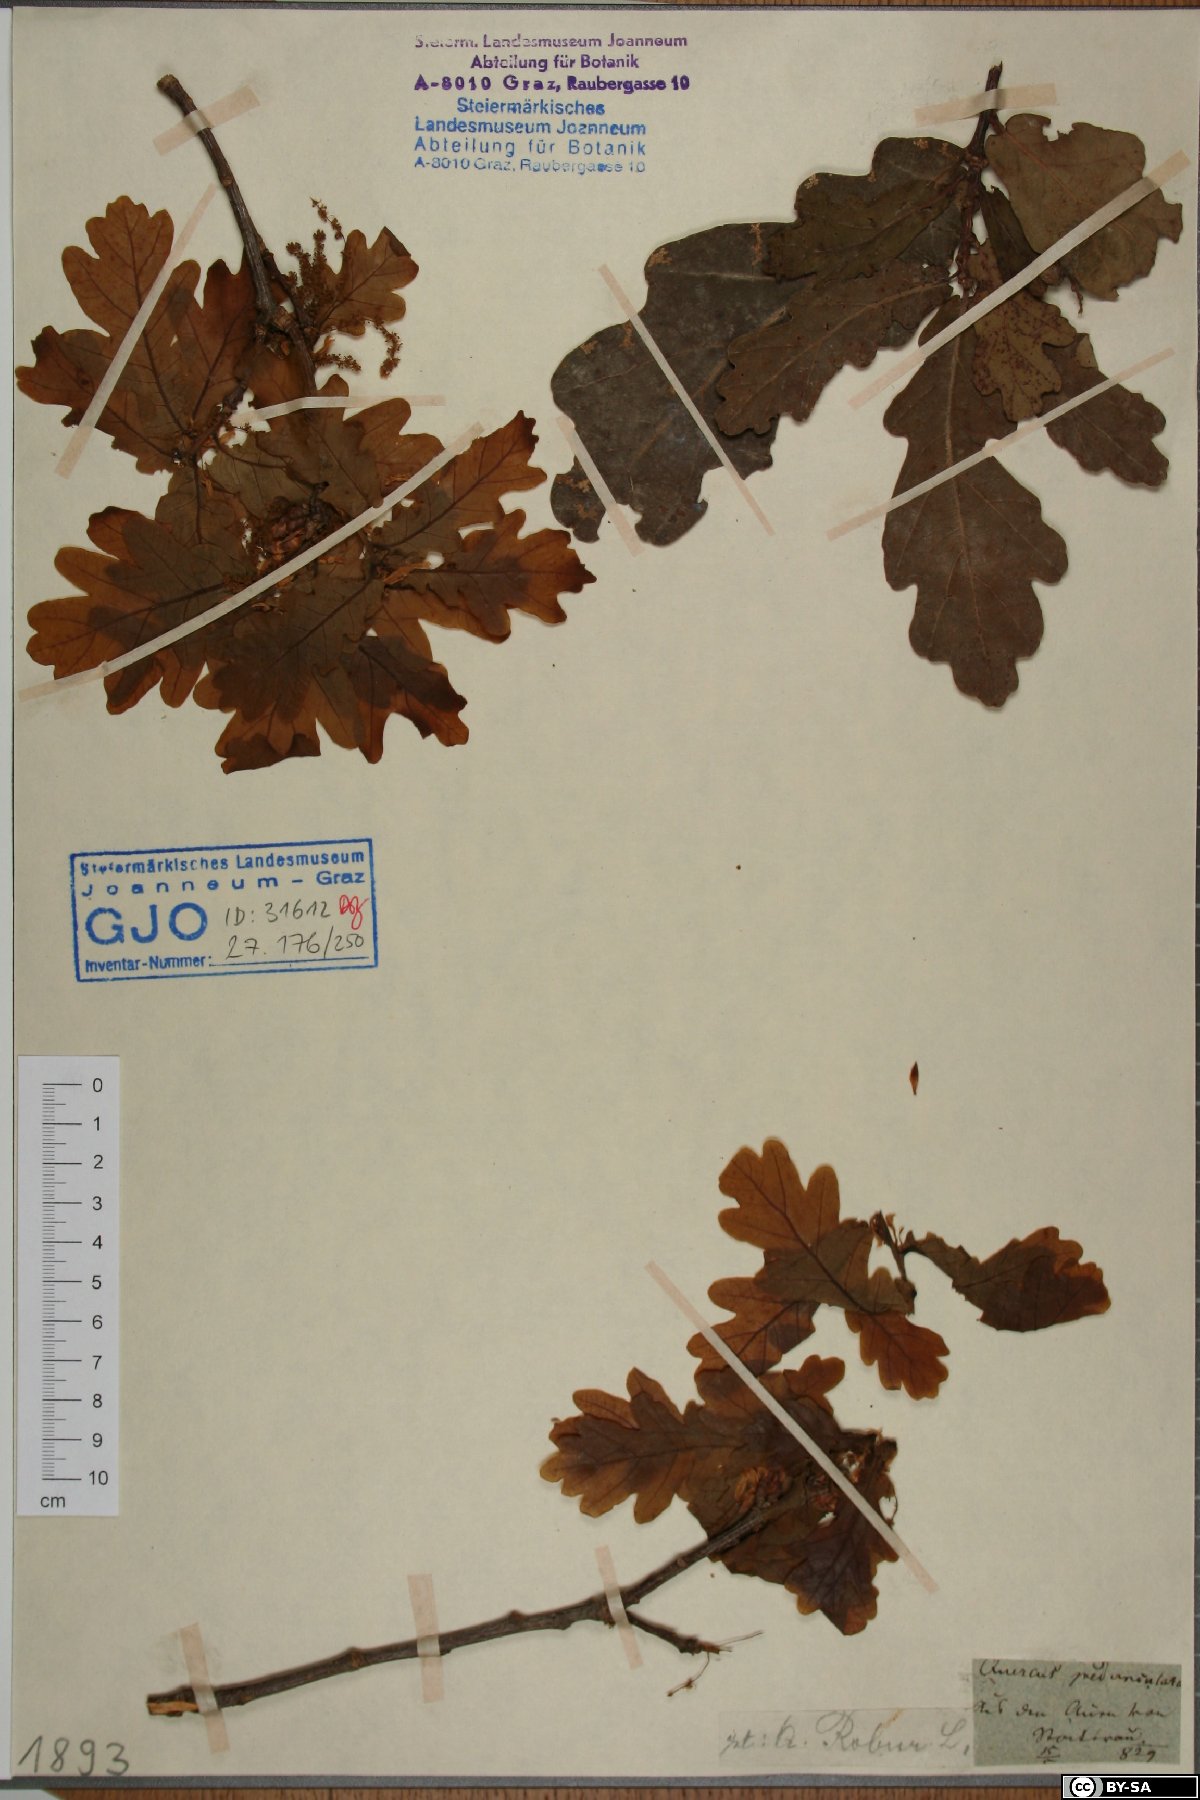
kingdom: Plantae
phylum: Tracheophyta
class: Magnoliopsida
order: Fagales
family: Fagaceae
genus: Quercus
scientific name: Quercus robur
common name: Pedunculate oak
